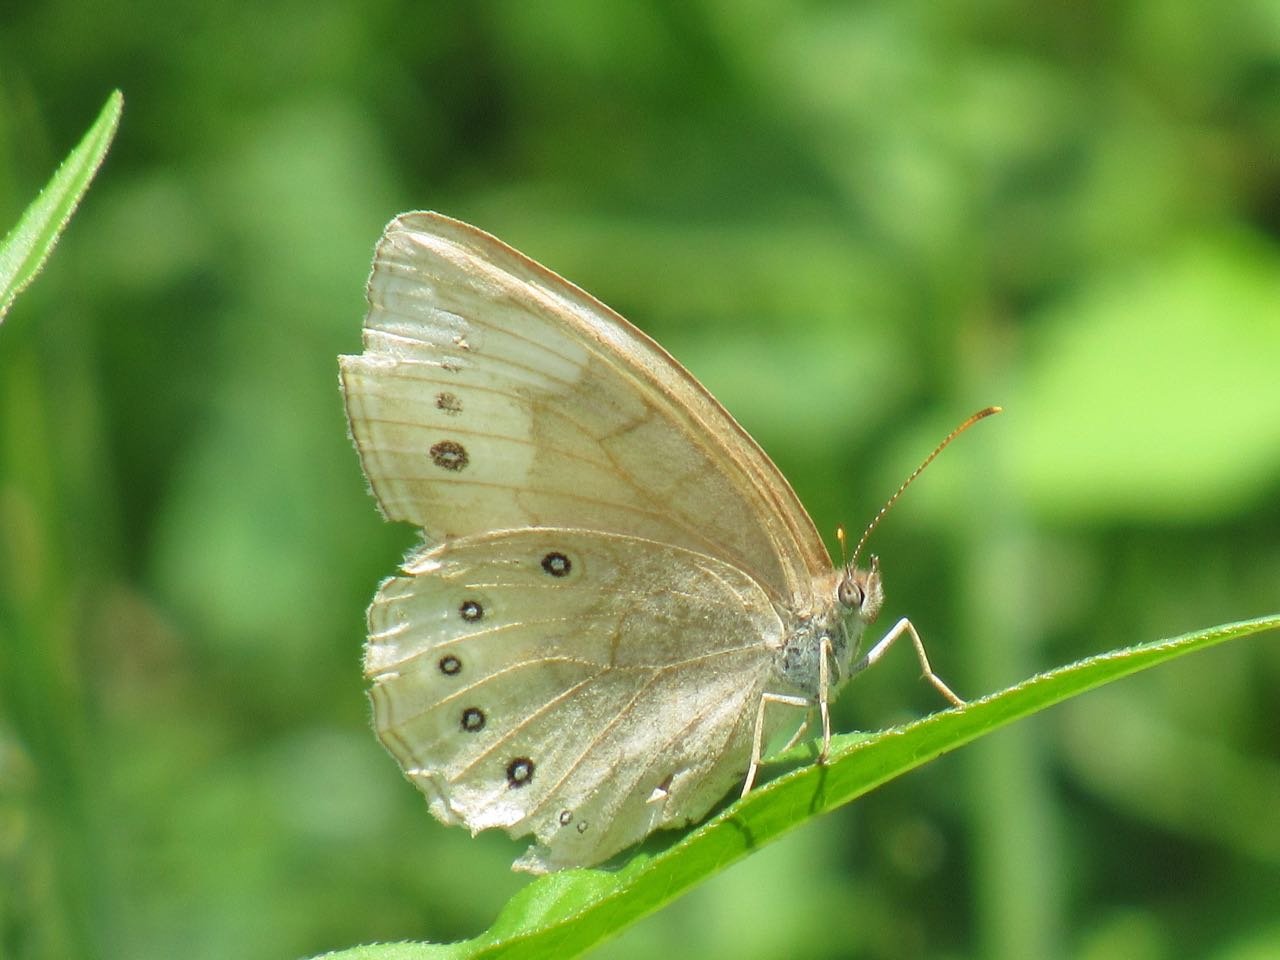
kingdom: Animalia
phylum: Arthropoda
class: Insecta
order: Lepidoptera
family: Nymphalidae
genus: Lethe
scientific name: Lethe
